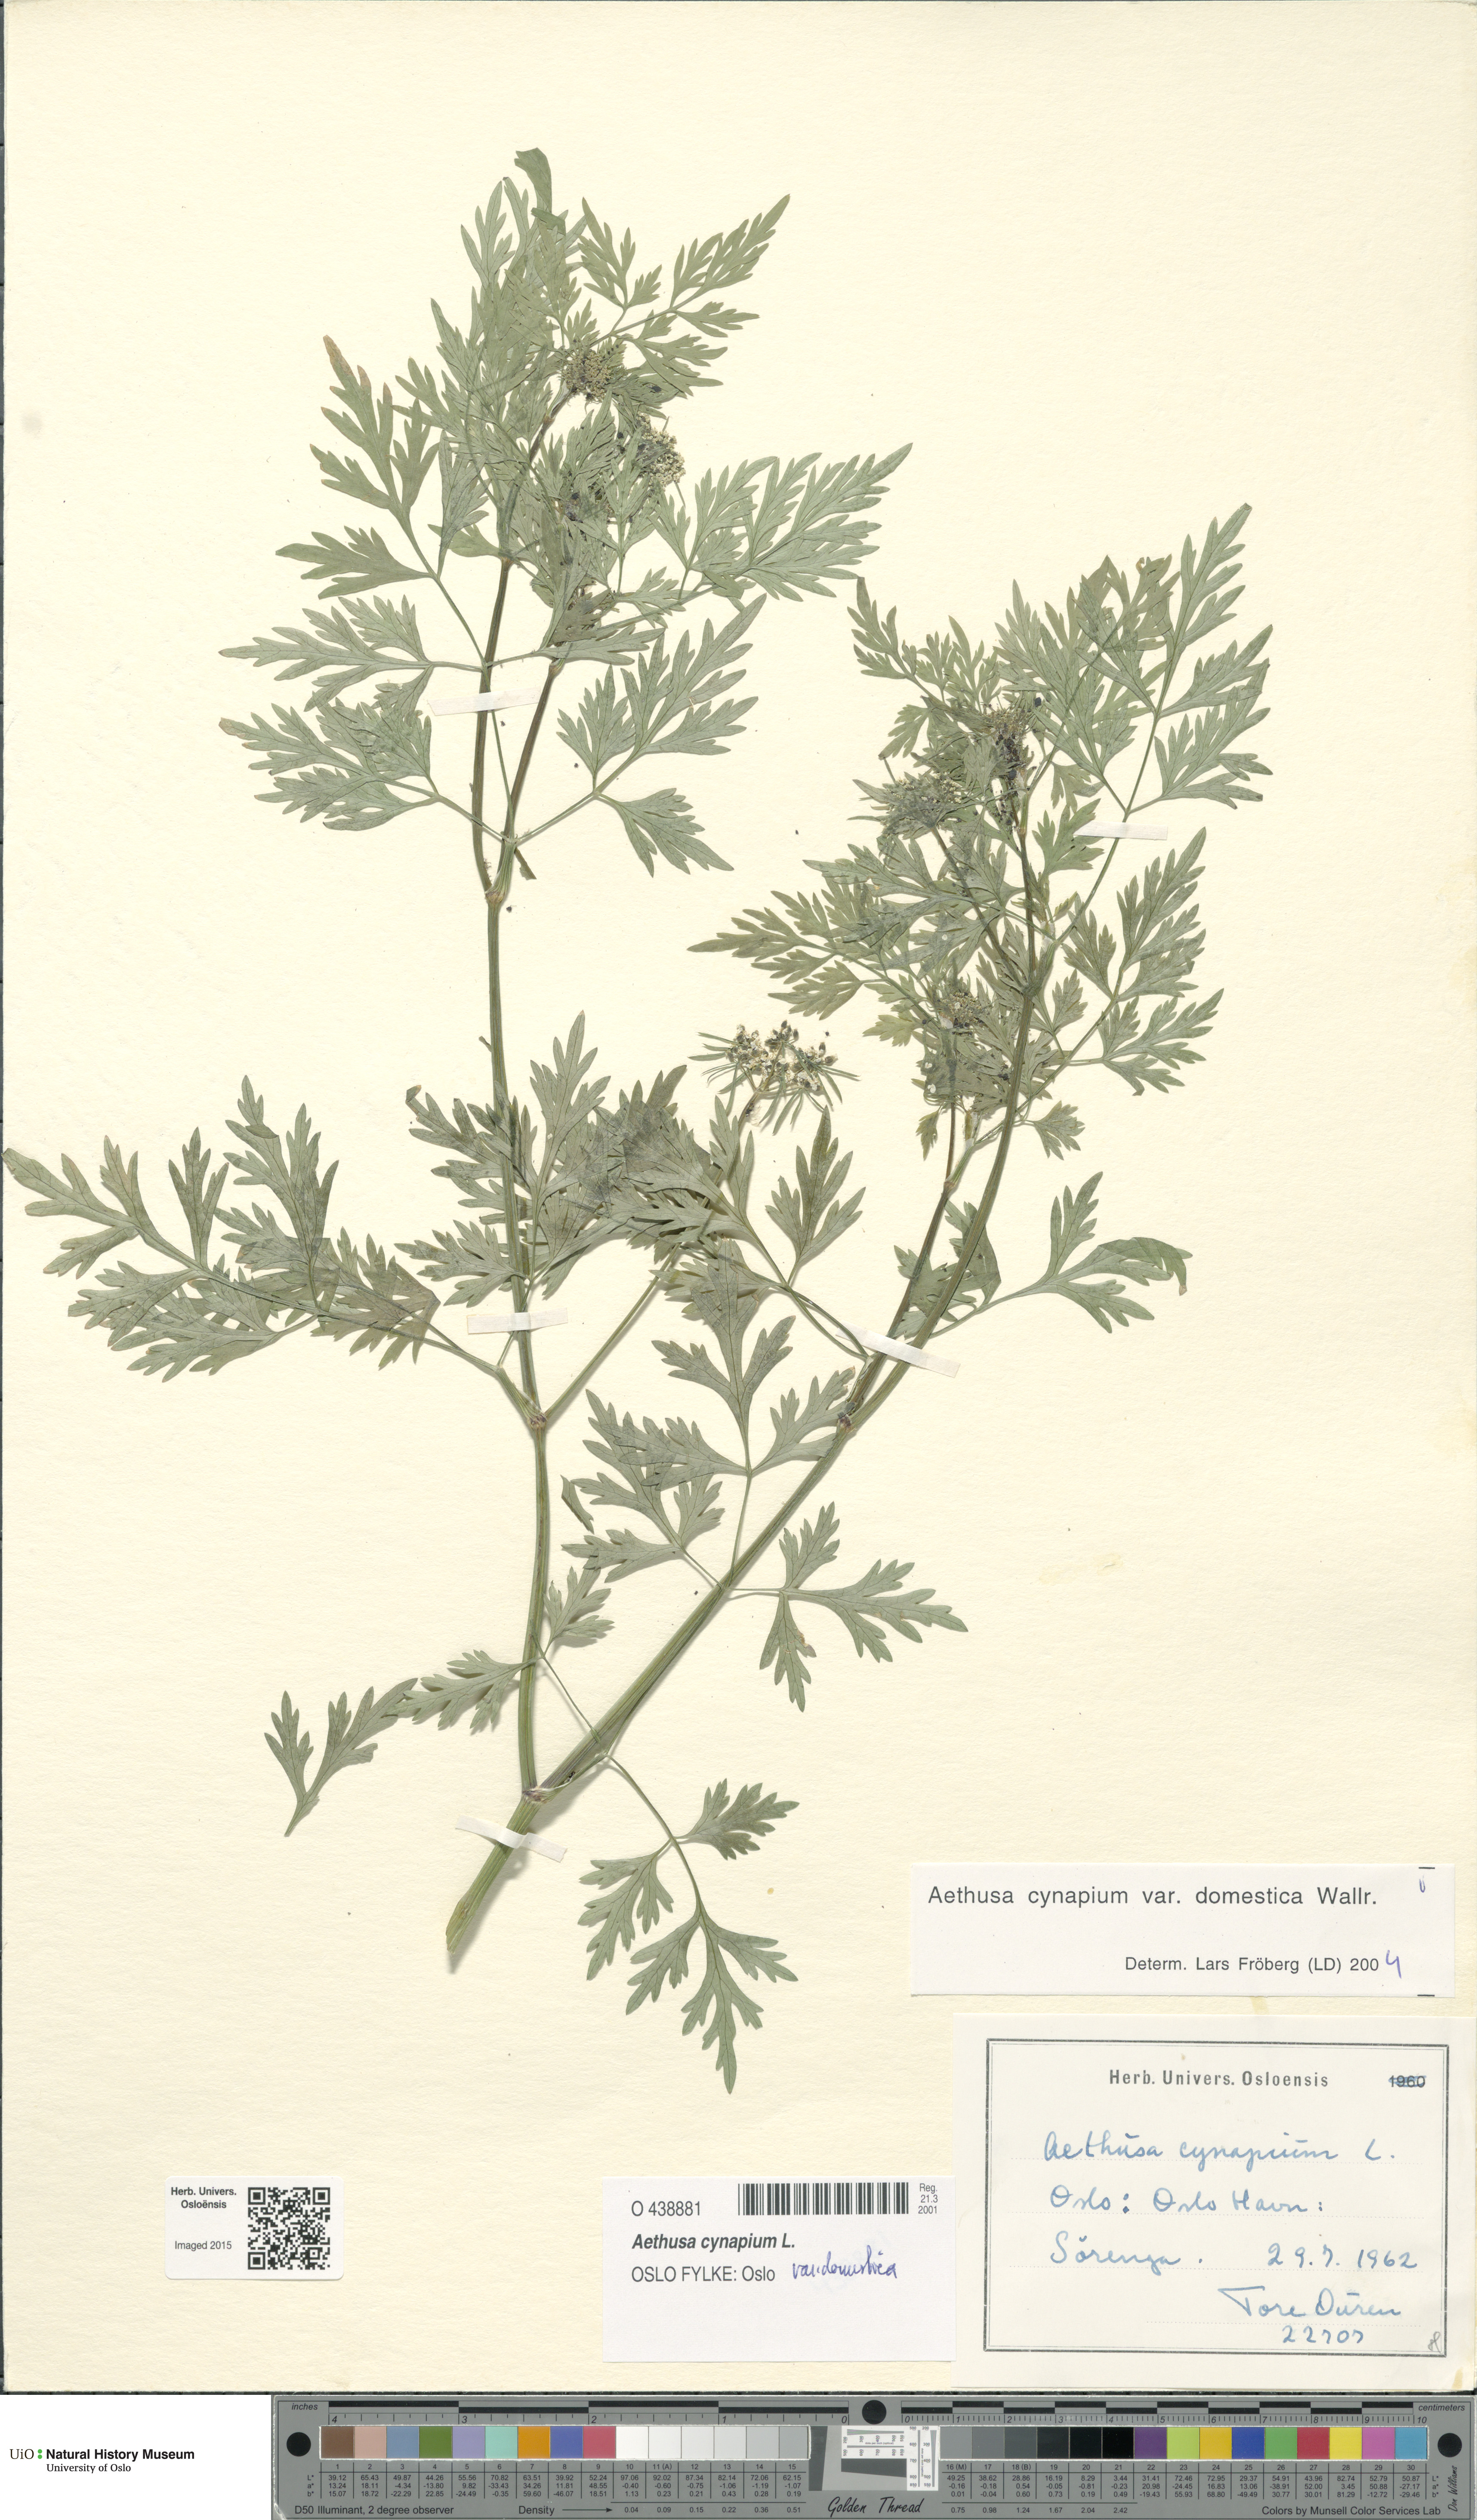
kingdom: Plantae
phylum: Tracheophyta
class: Magnoliopsida
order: Apiales
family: Apiaceae
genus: Aethusa
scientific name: Aethusa cynapium
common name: Fool's parsley
